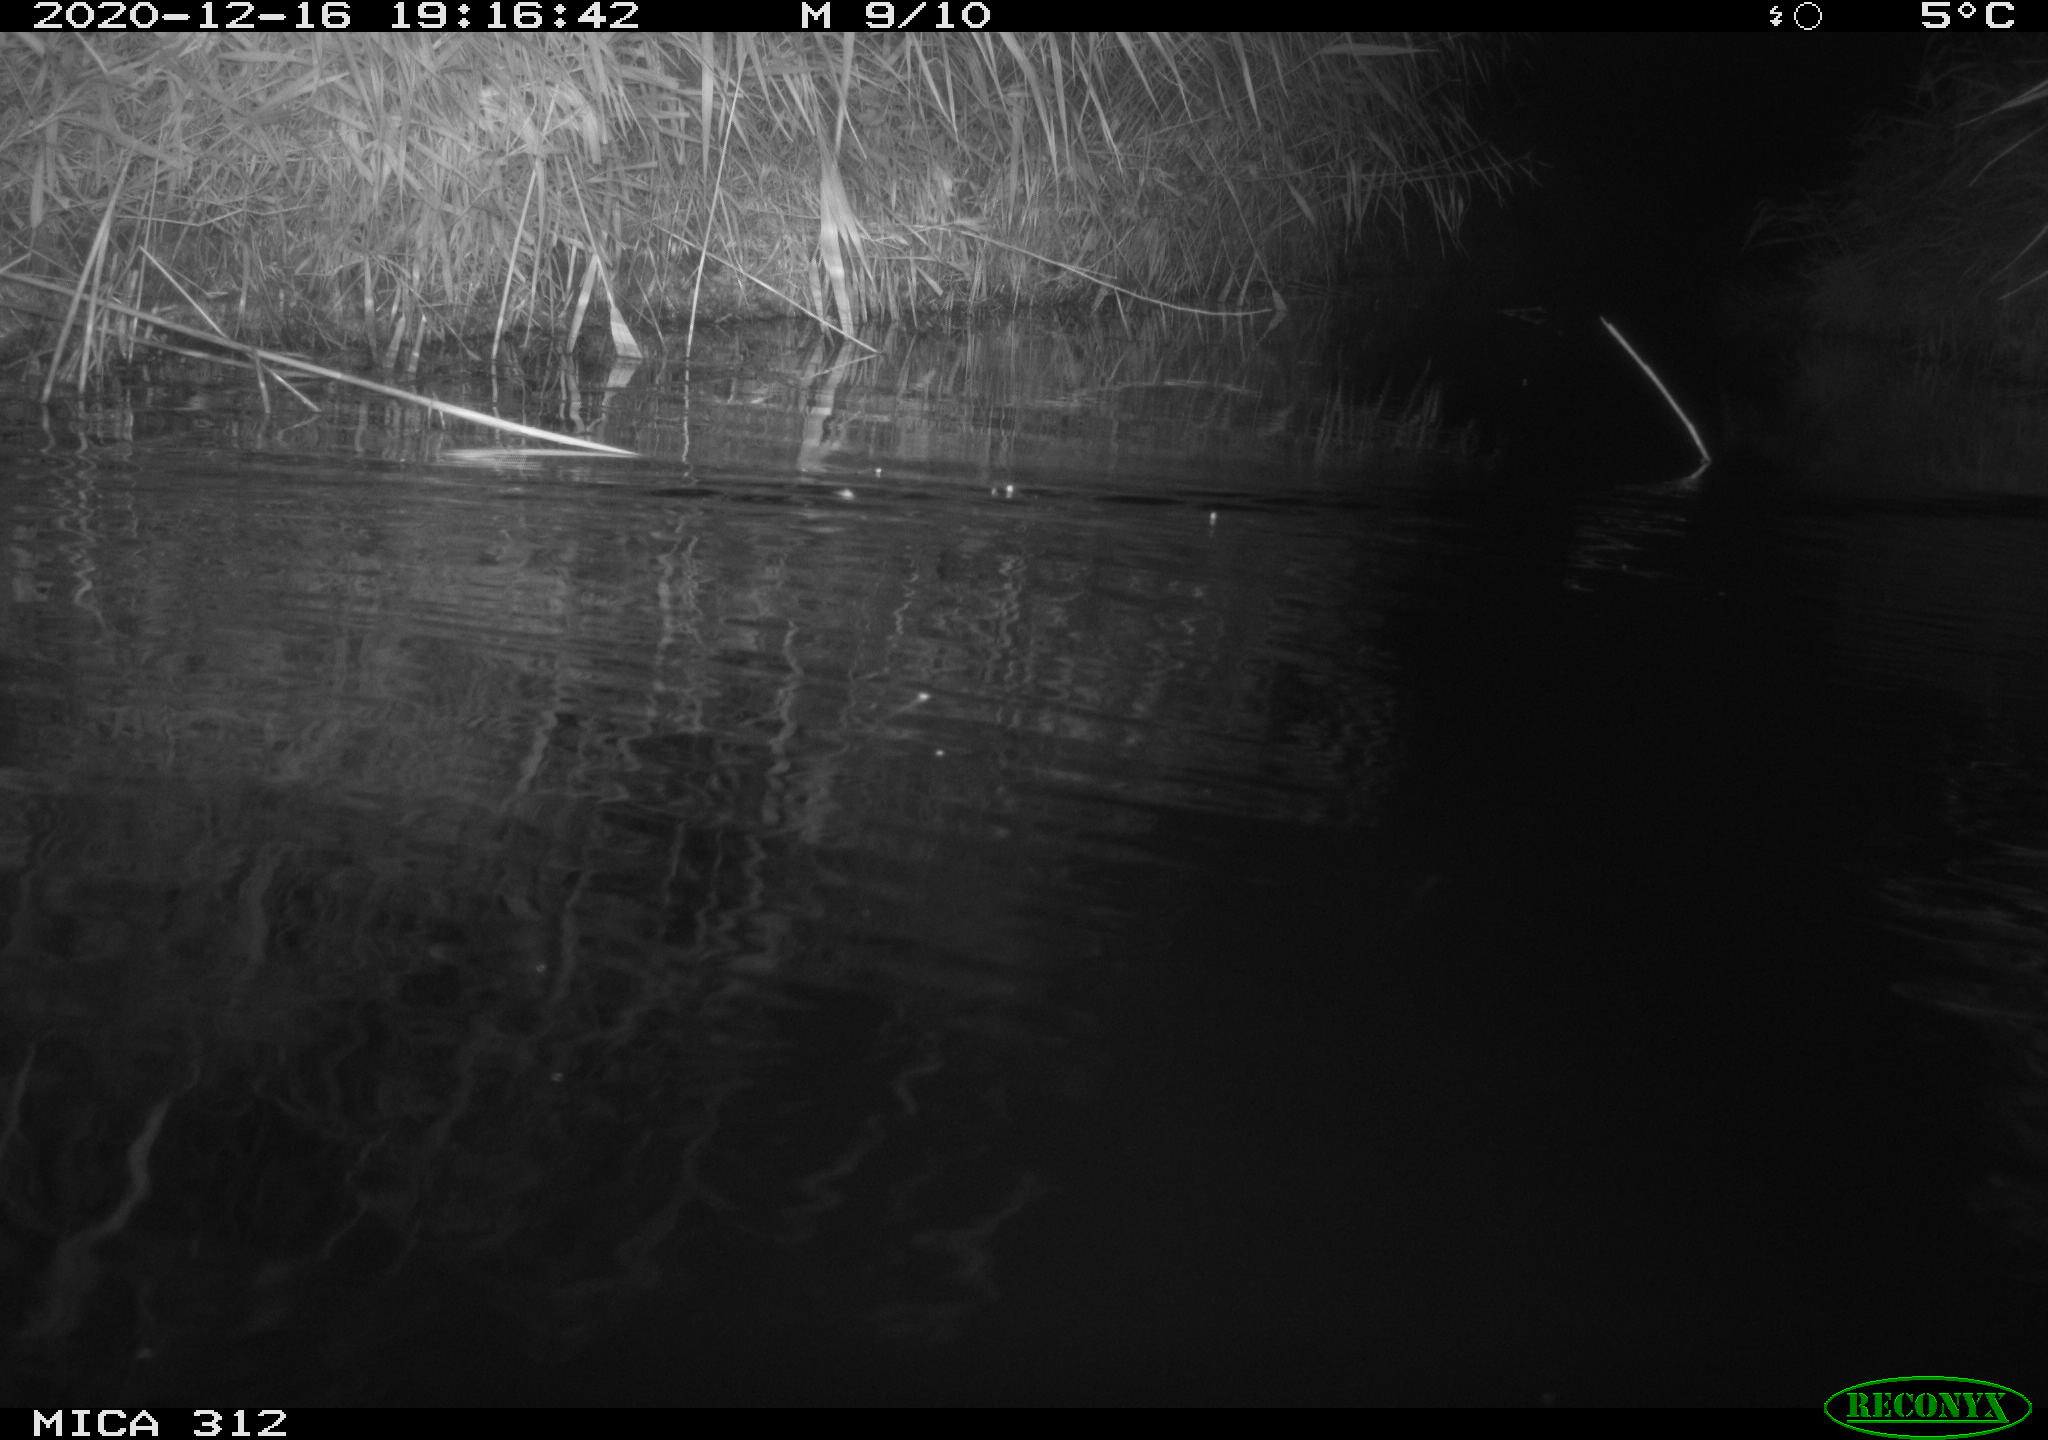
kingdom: Animalia
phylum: Chordata
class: Mammalia
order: Rodentia
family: Muridae
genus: Rattus
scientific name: Rattus norvegicus
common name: Brown rat
